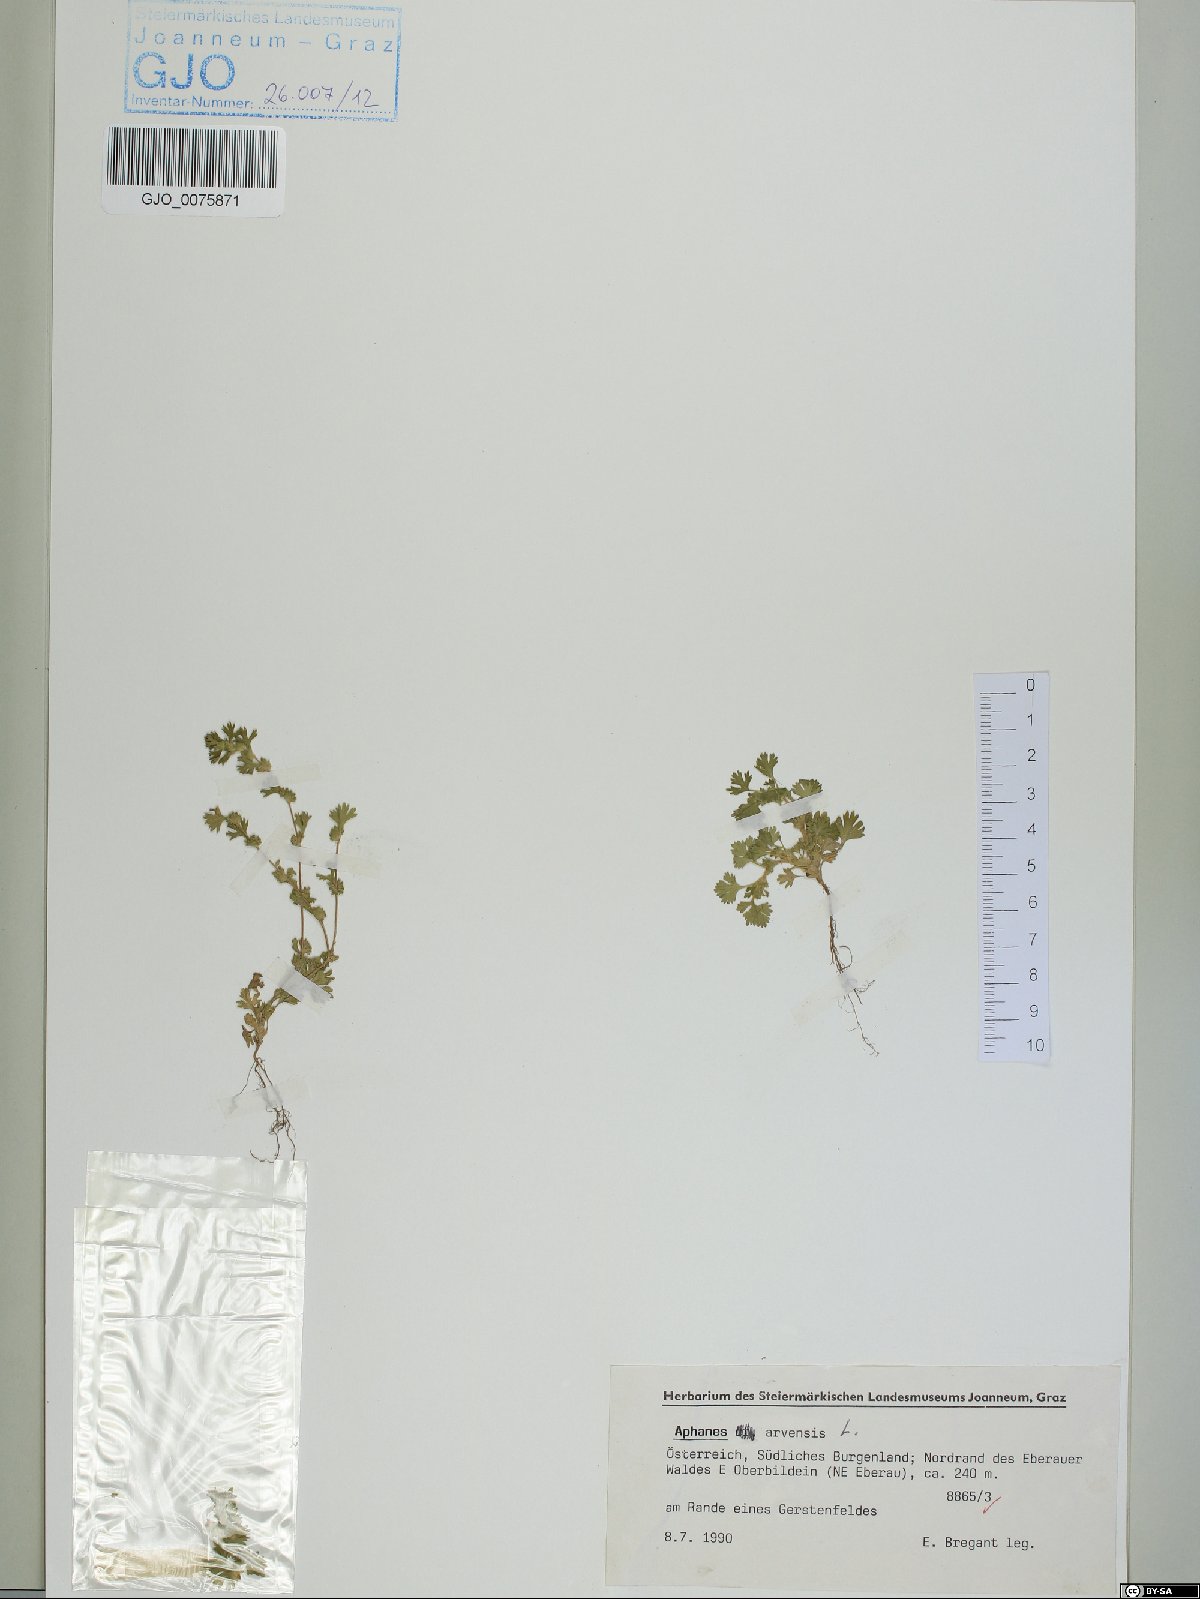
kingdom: Plantae
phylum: Tracheophyta
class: Magnoliopsida
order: Rosales
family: Rosaceae
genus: Aphanes
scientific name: Aphanes arvensis
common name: Parsley-piert
